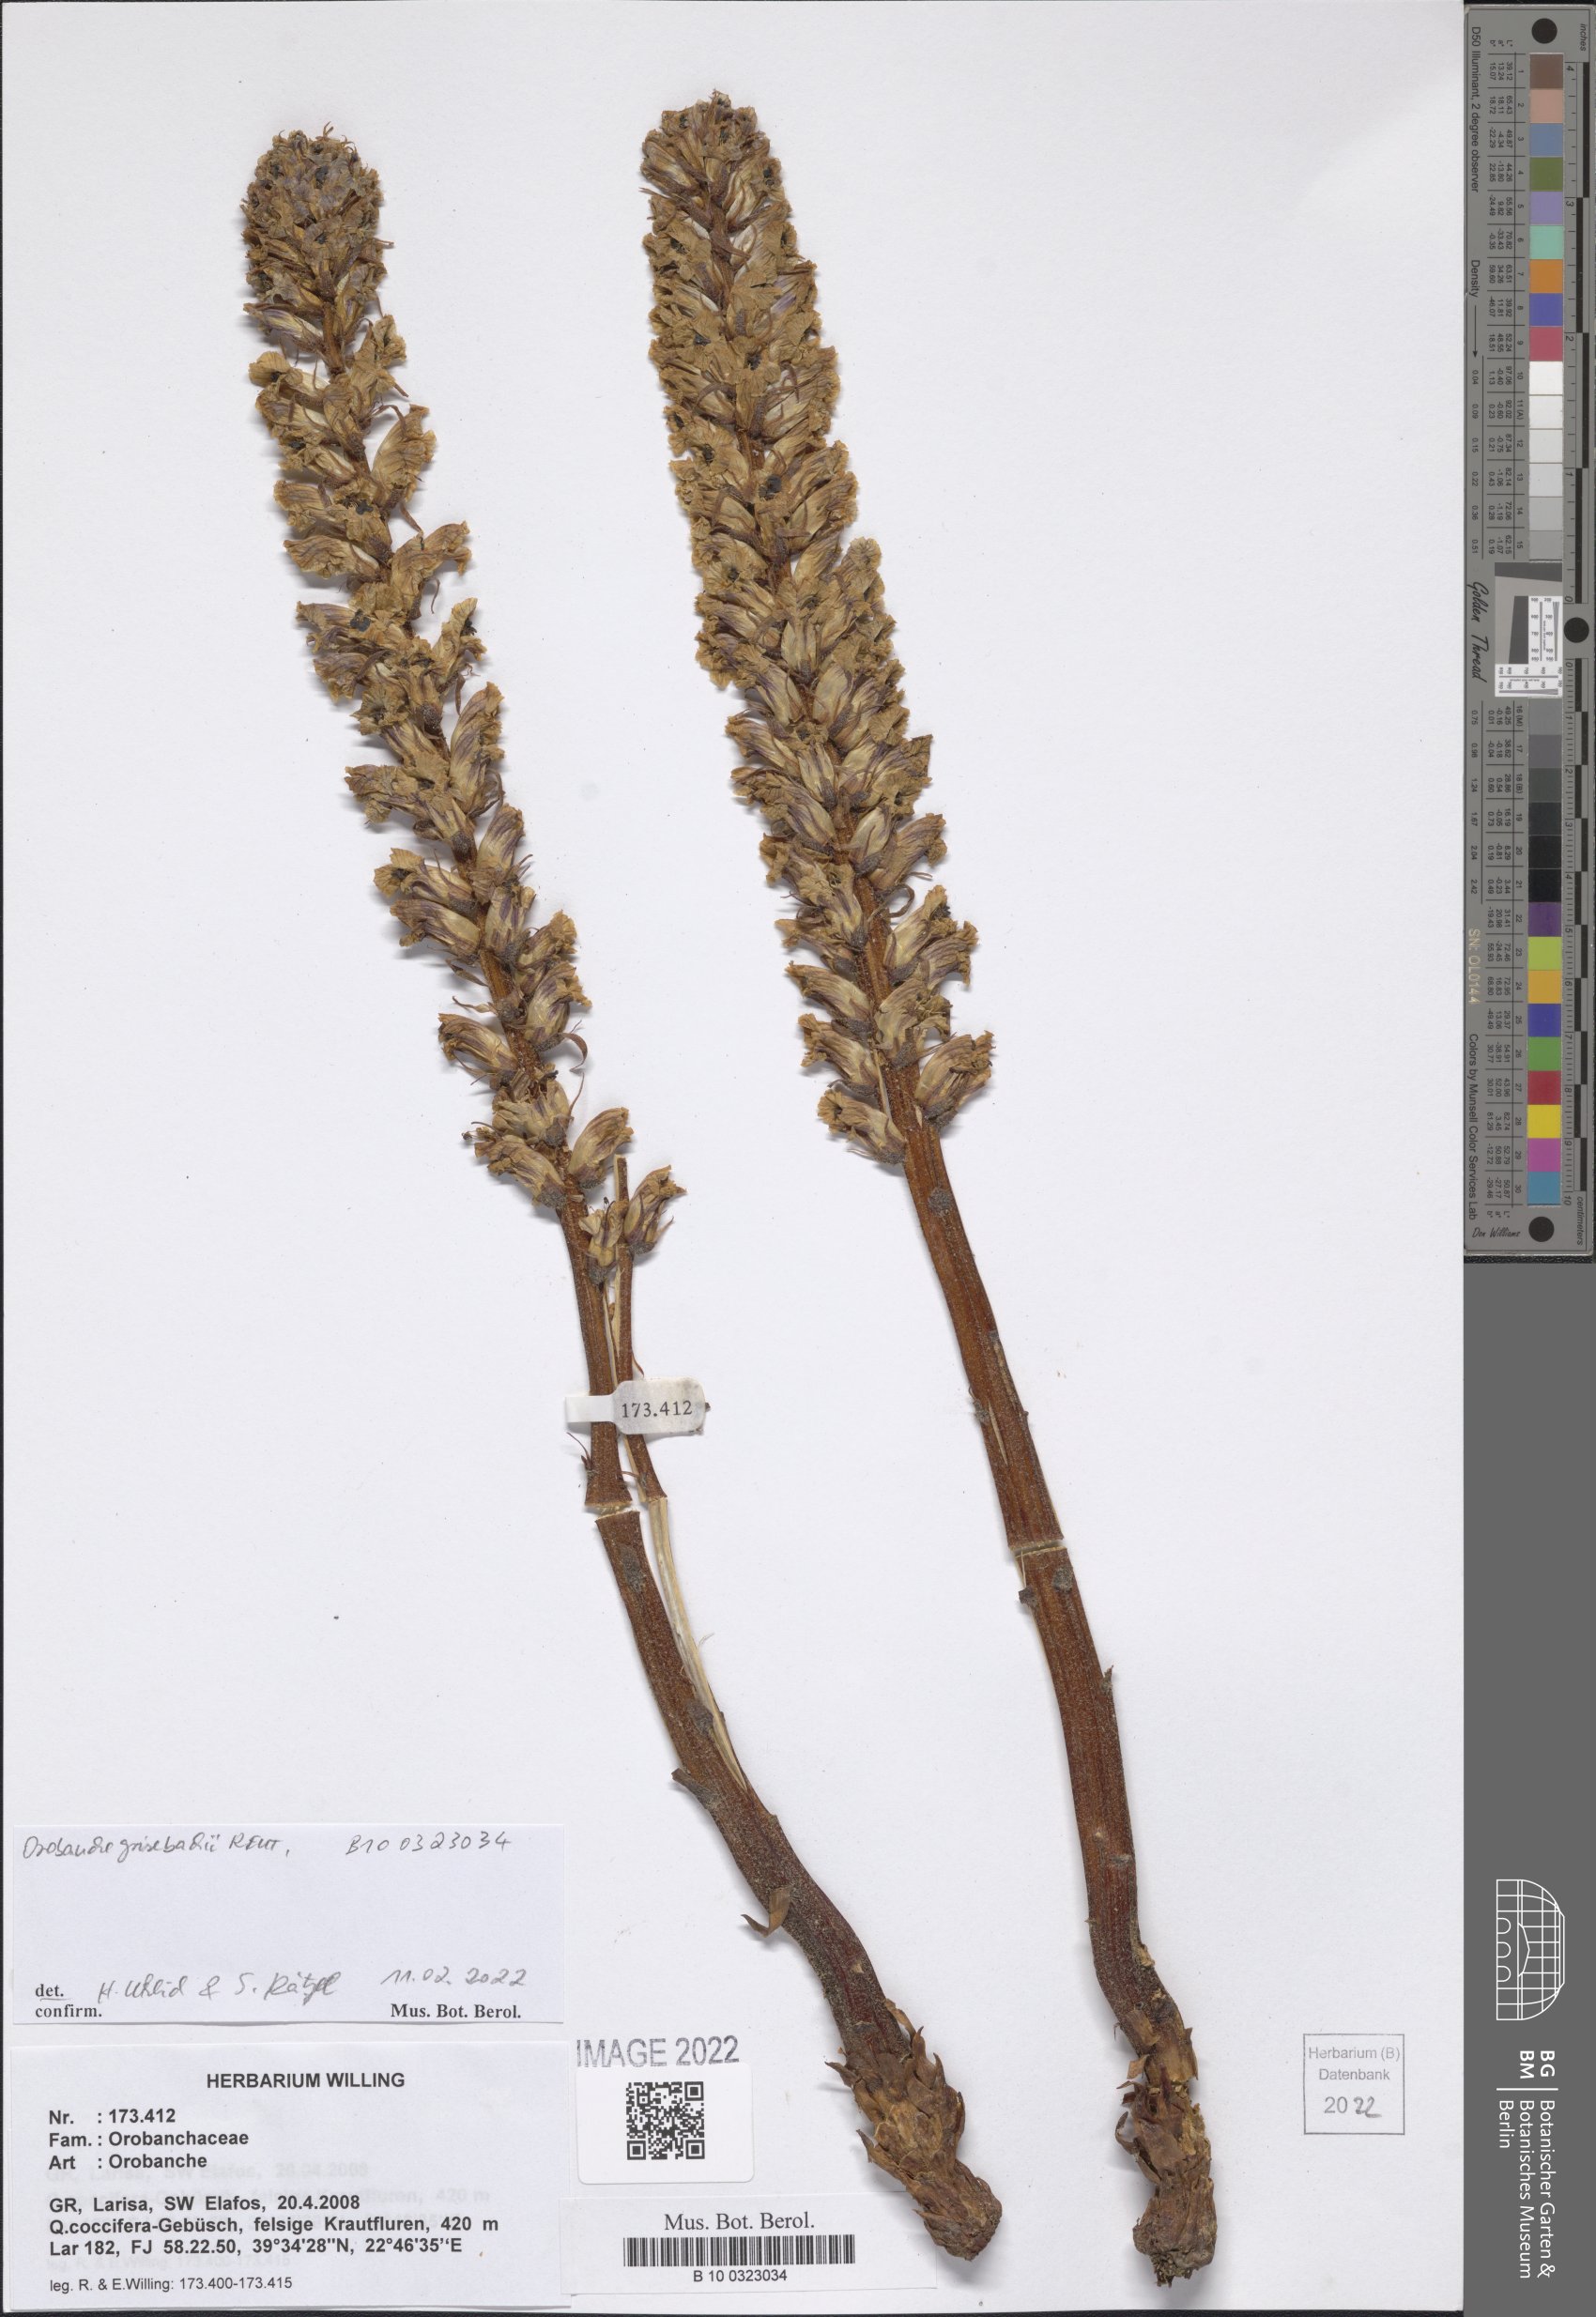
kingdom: Plantae
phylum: Tracheophyta
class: Magnoliopsida
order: Lamiales
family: Orobanchaceae
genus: Orobanche
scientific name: Orobanche grisebachii
